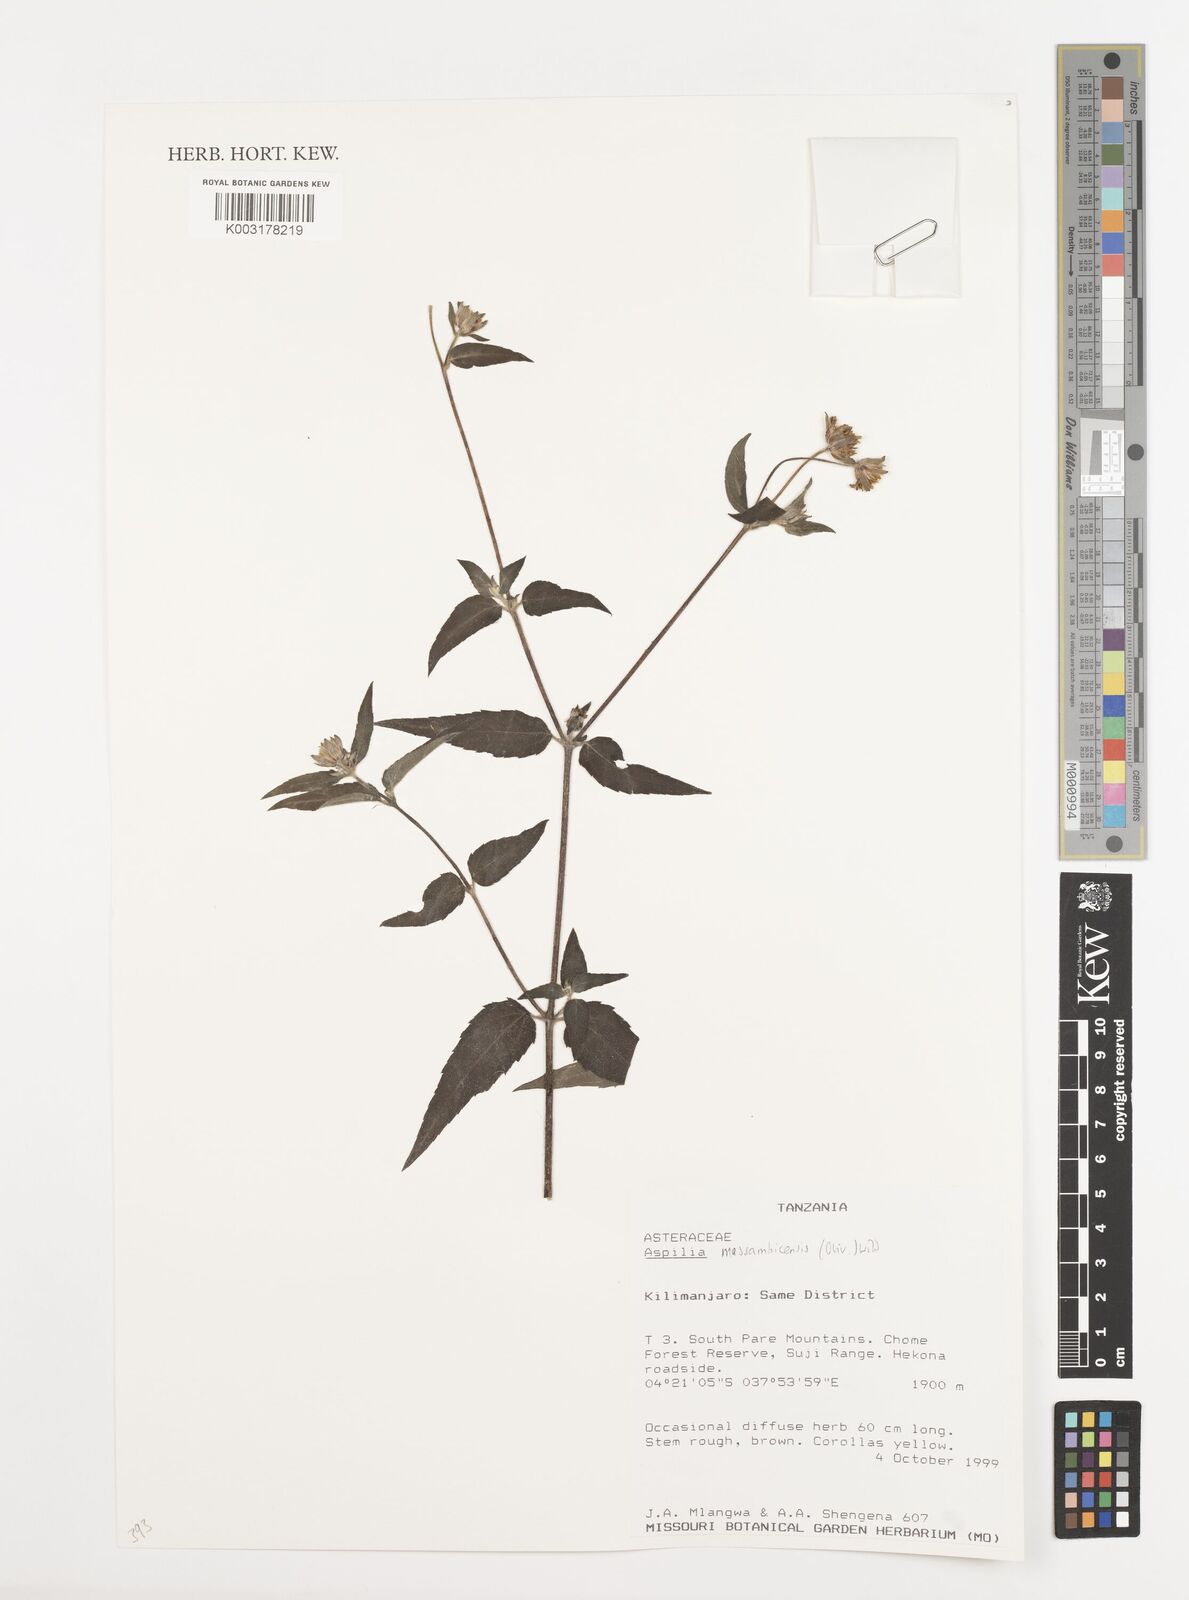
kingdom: Plantae
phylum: Tracheophyta
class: Magnoliopsida
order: Asterales
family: Asteraceae
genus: Aspilia
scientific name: Aspilia mossambicensis
